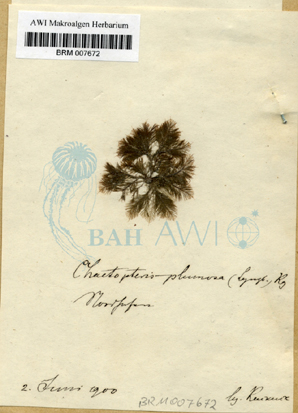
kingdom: Chromista
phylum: Ochrophyta
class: Phaeophyceae
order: Sphacelariales
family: Sphacelariaceae
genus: Chaetopteris
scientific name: Chaetopteris plumosa
